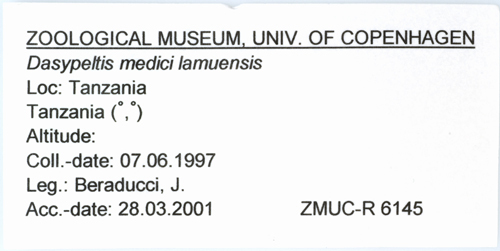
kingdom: Animalia
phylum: Chordata
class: Squamata
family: Colubridae
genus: Dasypeltis
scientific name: Dasypeltis medici
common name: East african egg eater
